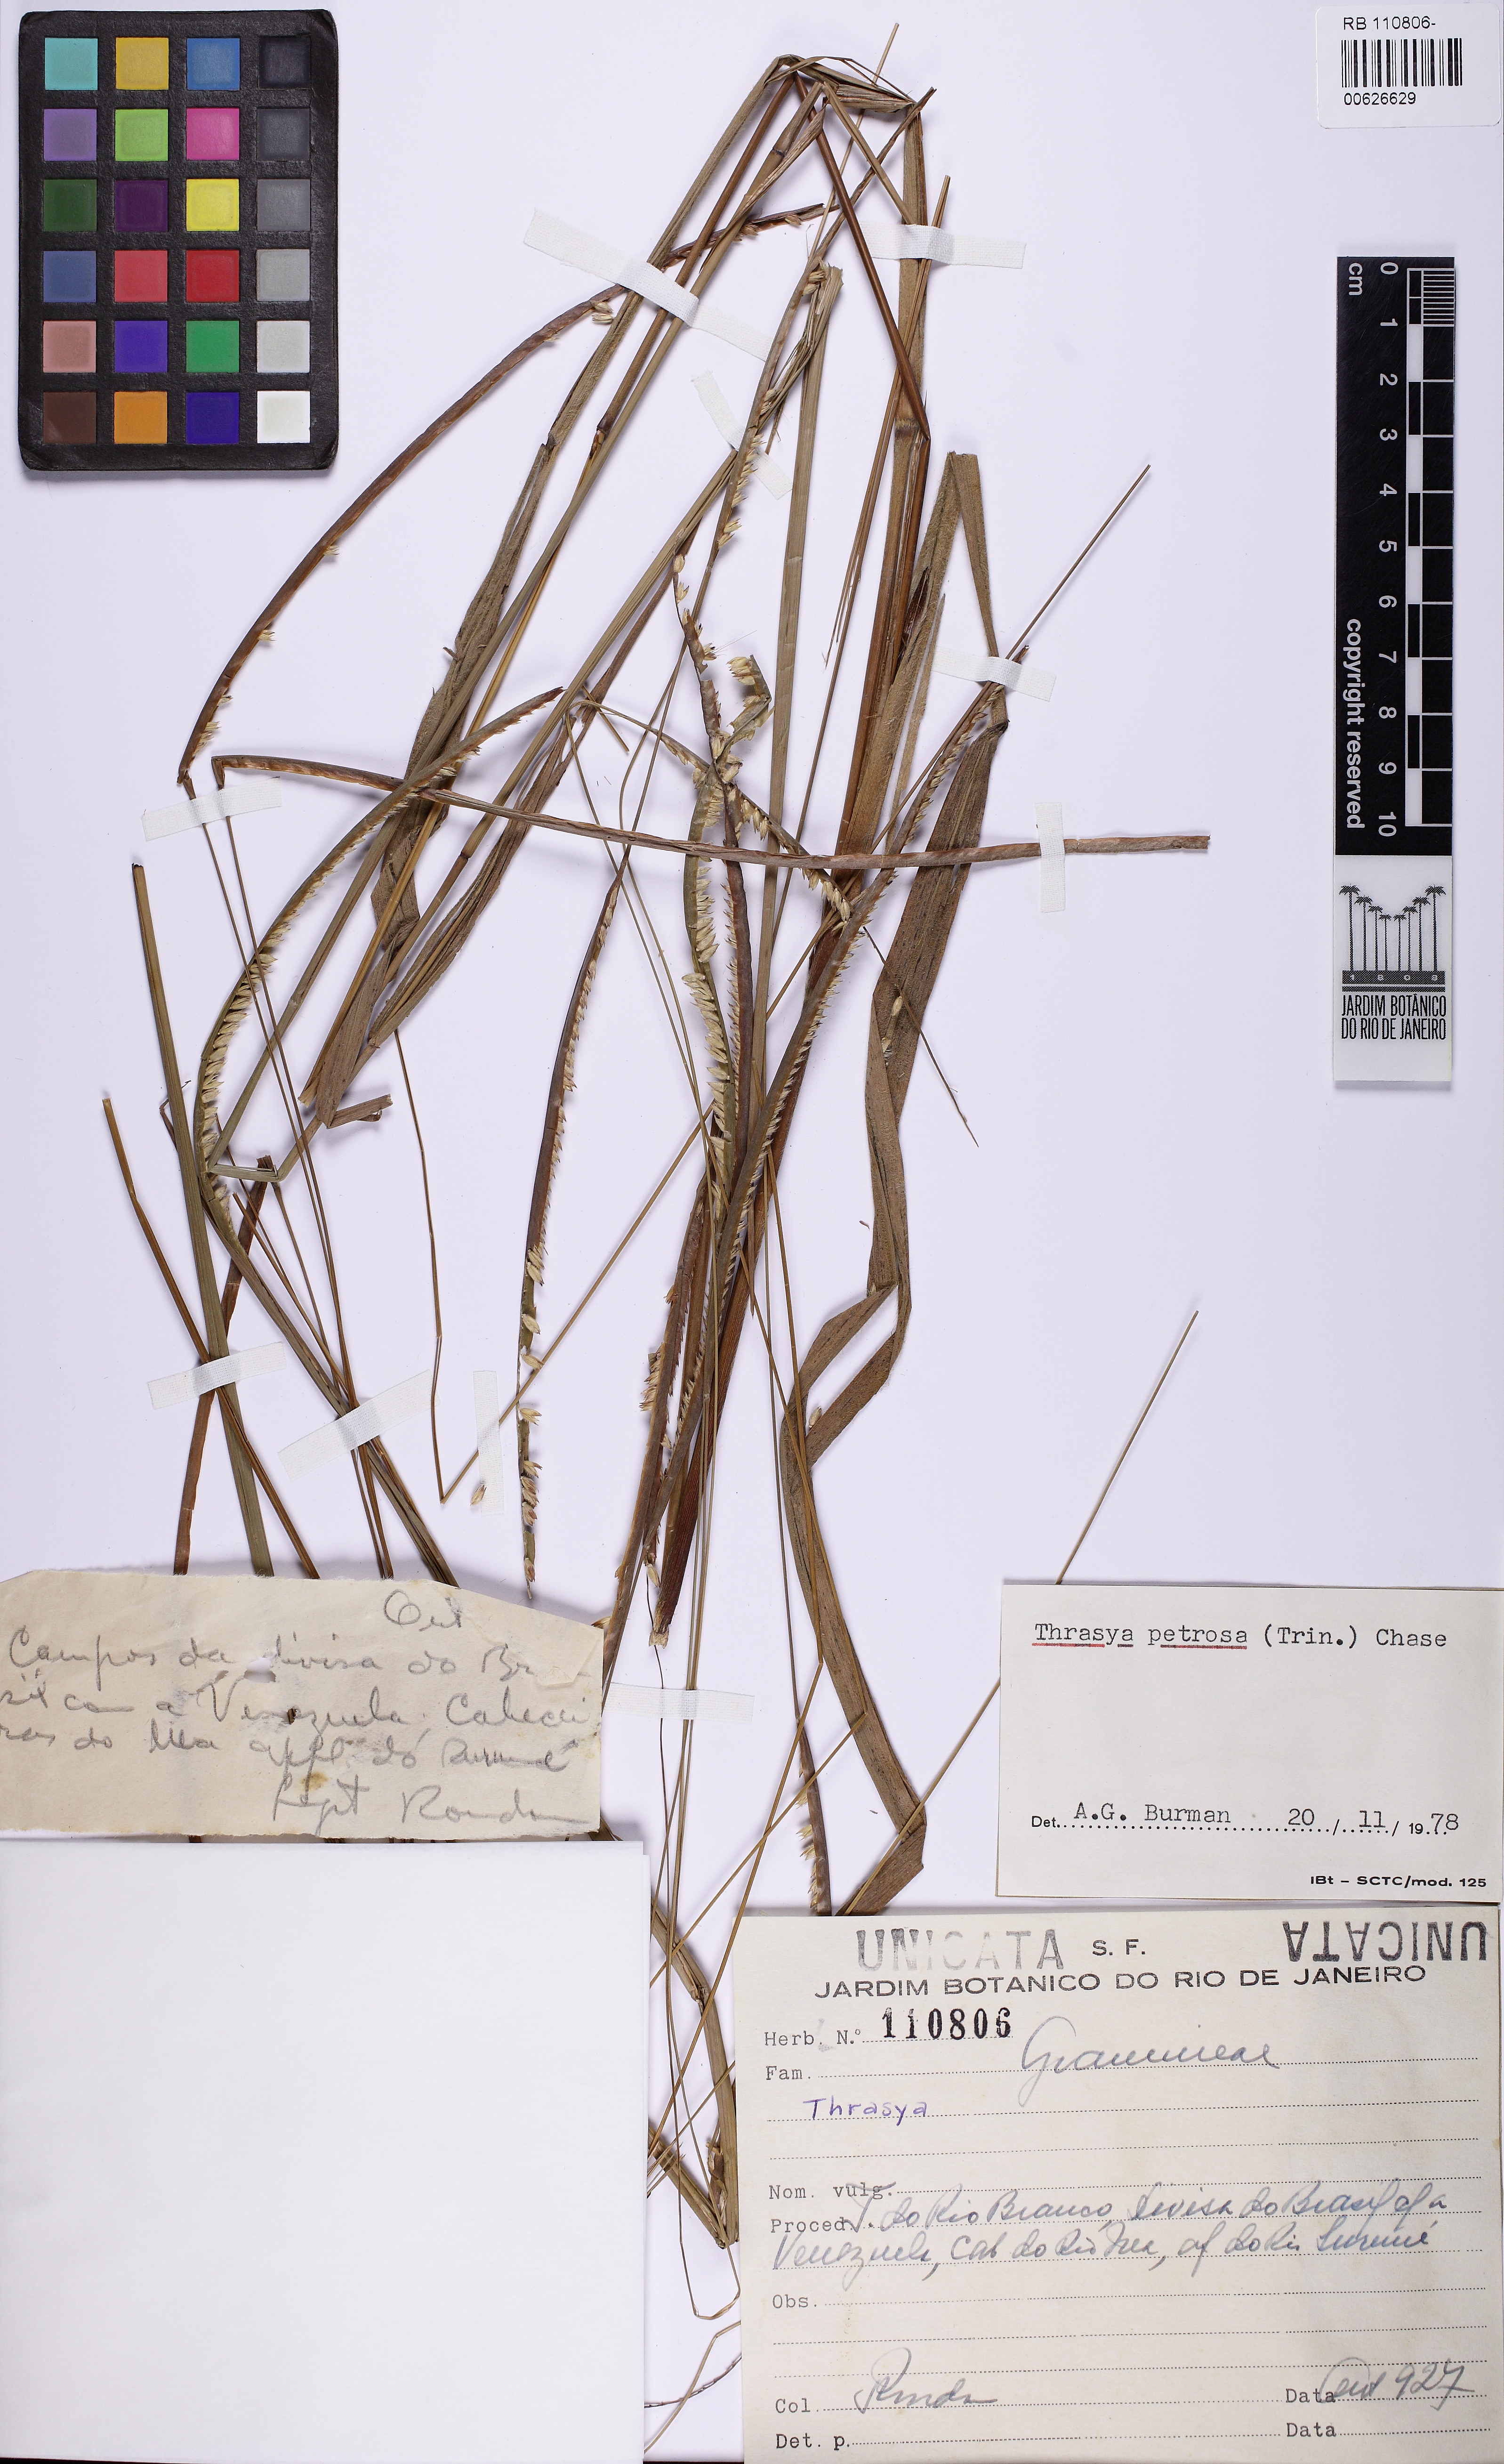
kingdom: Plantae
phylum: Tracheophyta
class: Liliopsida
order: Poales
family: Poaceae
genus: Paspalum
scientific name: Paspalum
